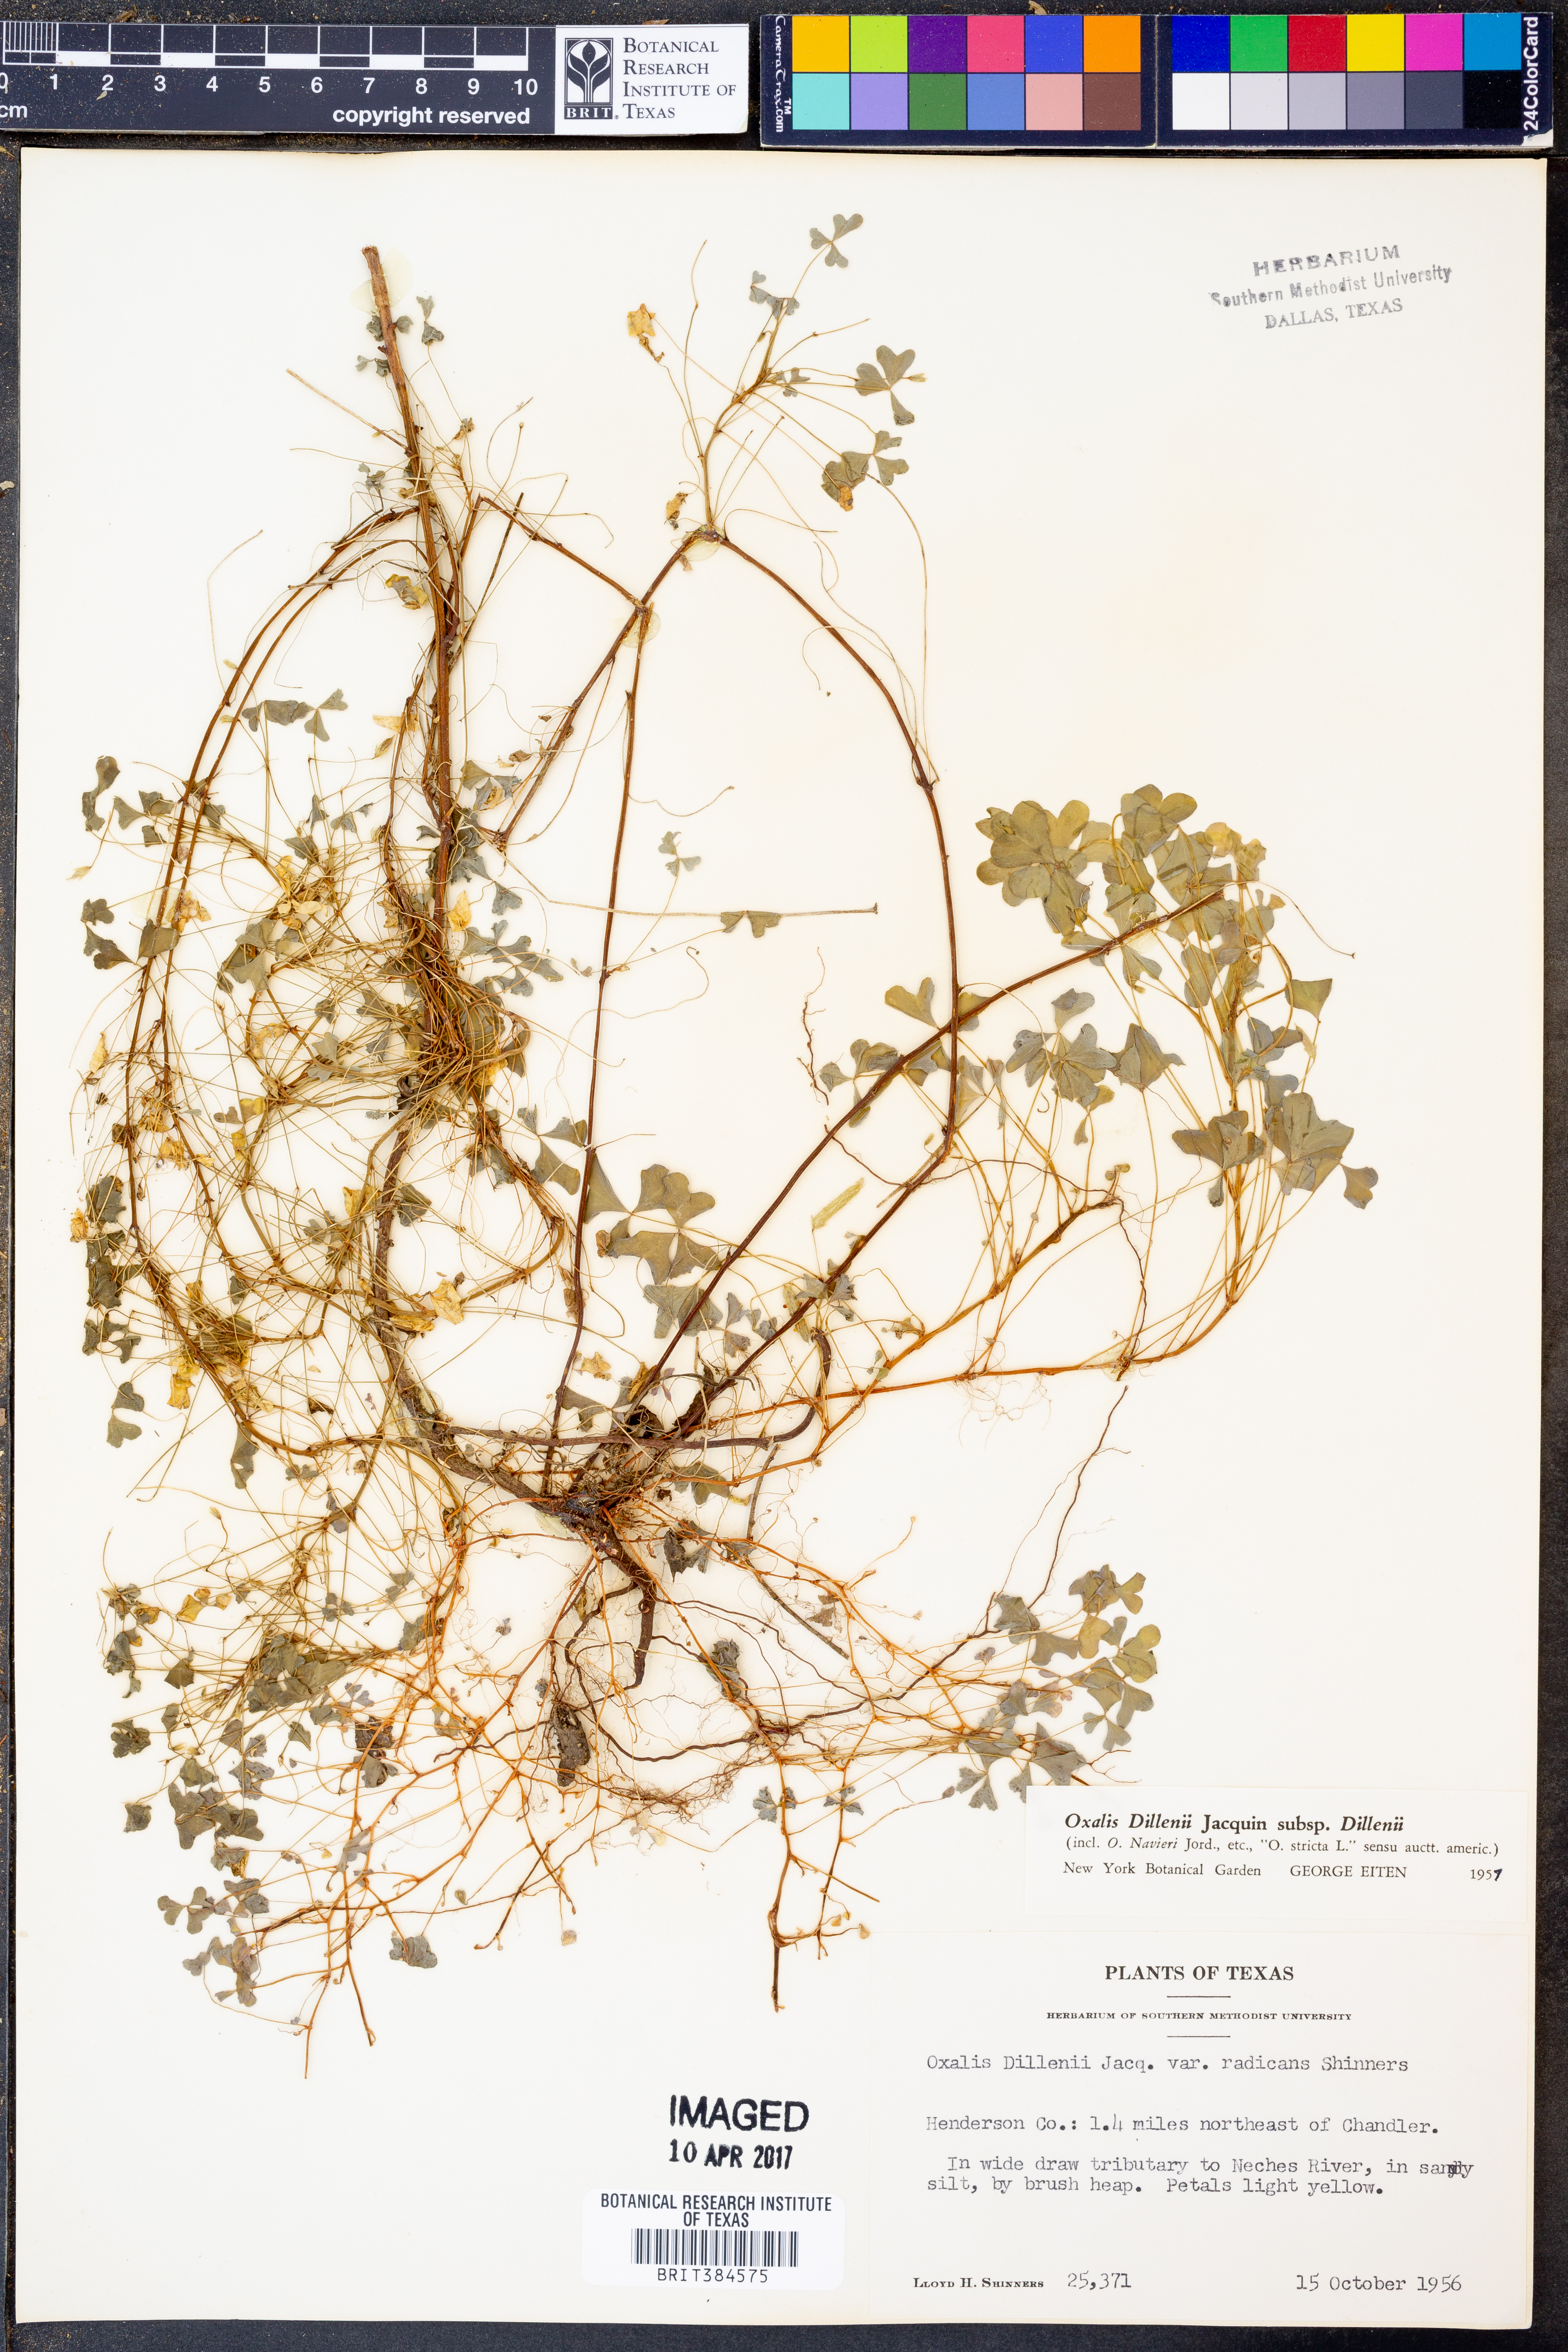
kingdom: Plantae
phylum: Tracheophyta
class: Magnoliopsida
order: Oxalidales
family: Oxalidaceae
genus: Oxalis
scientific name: Oxalis dillenii
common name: Sussex yellow-sorrel
